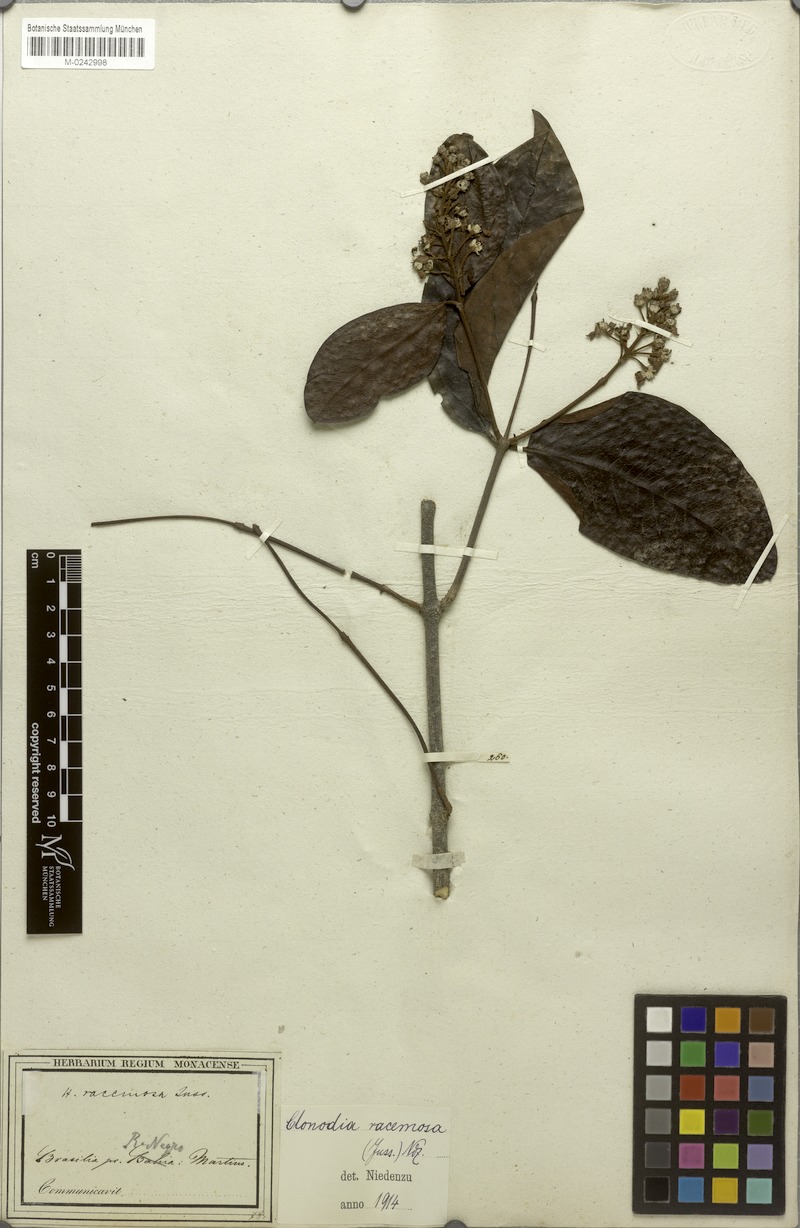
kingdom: Plantae
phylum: Tracheophyta
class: Magnoliopsida
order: Malpighiales
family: Malpighiaceae
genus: Heteropterys
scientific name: Heteropterys racemosa
